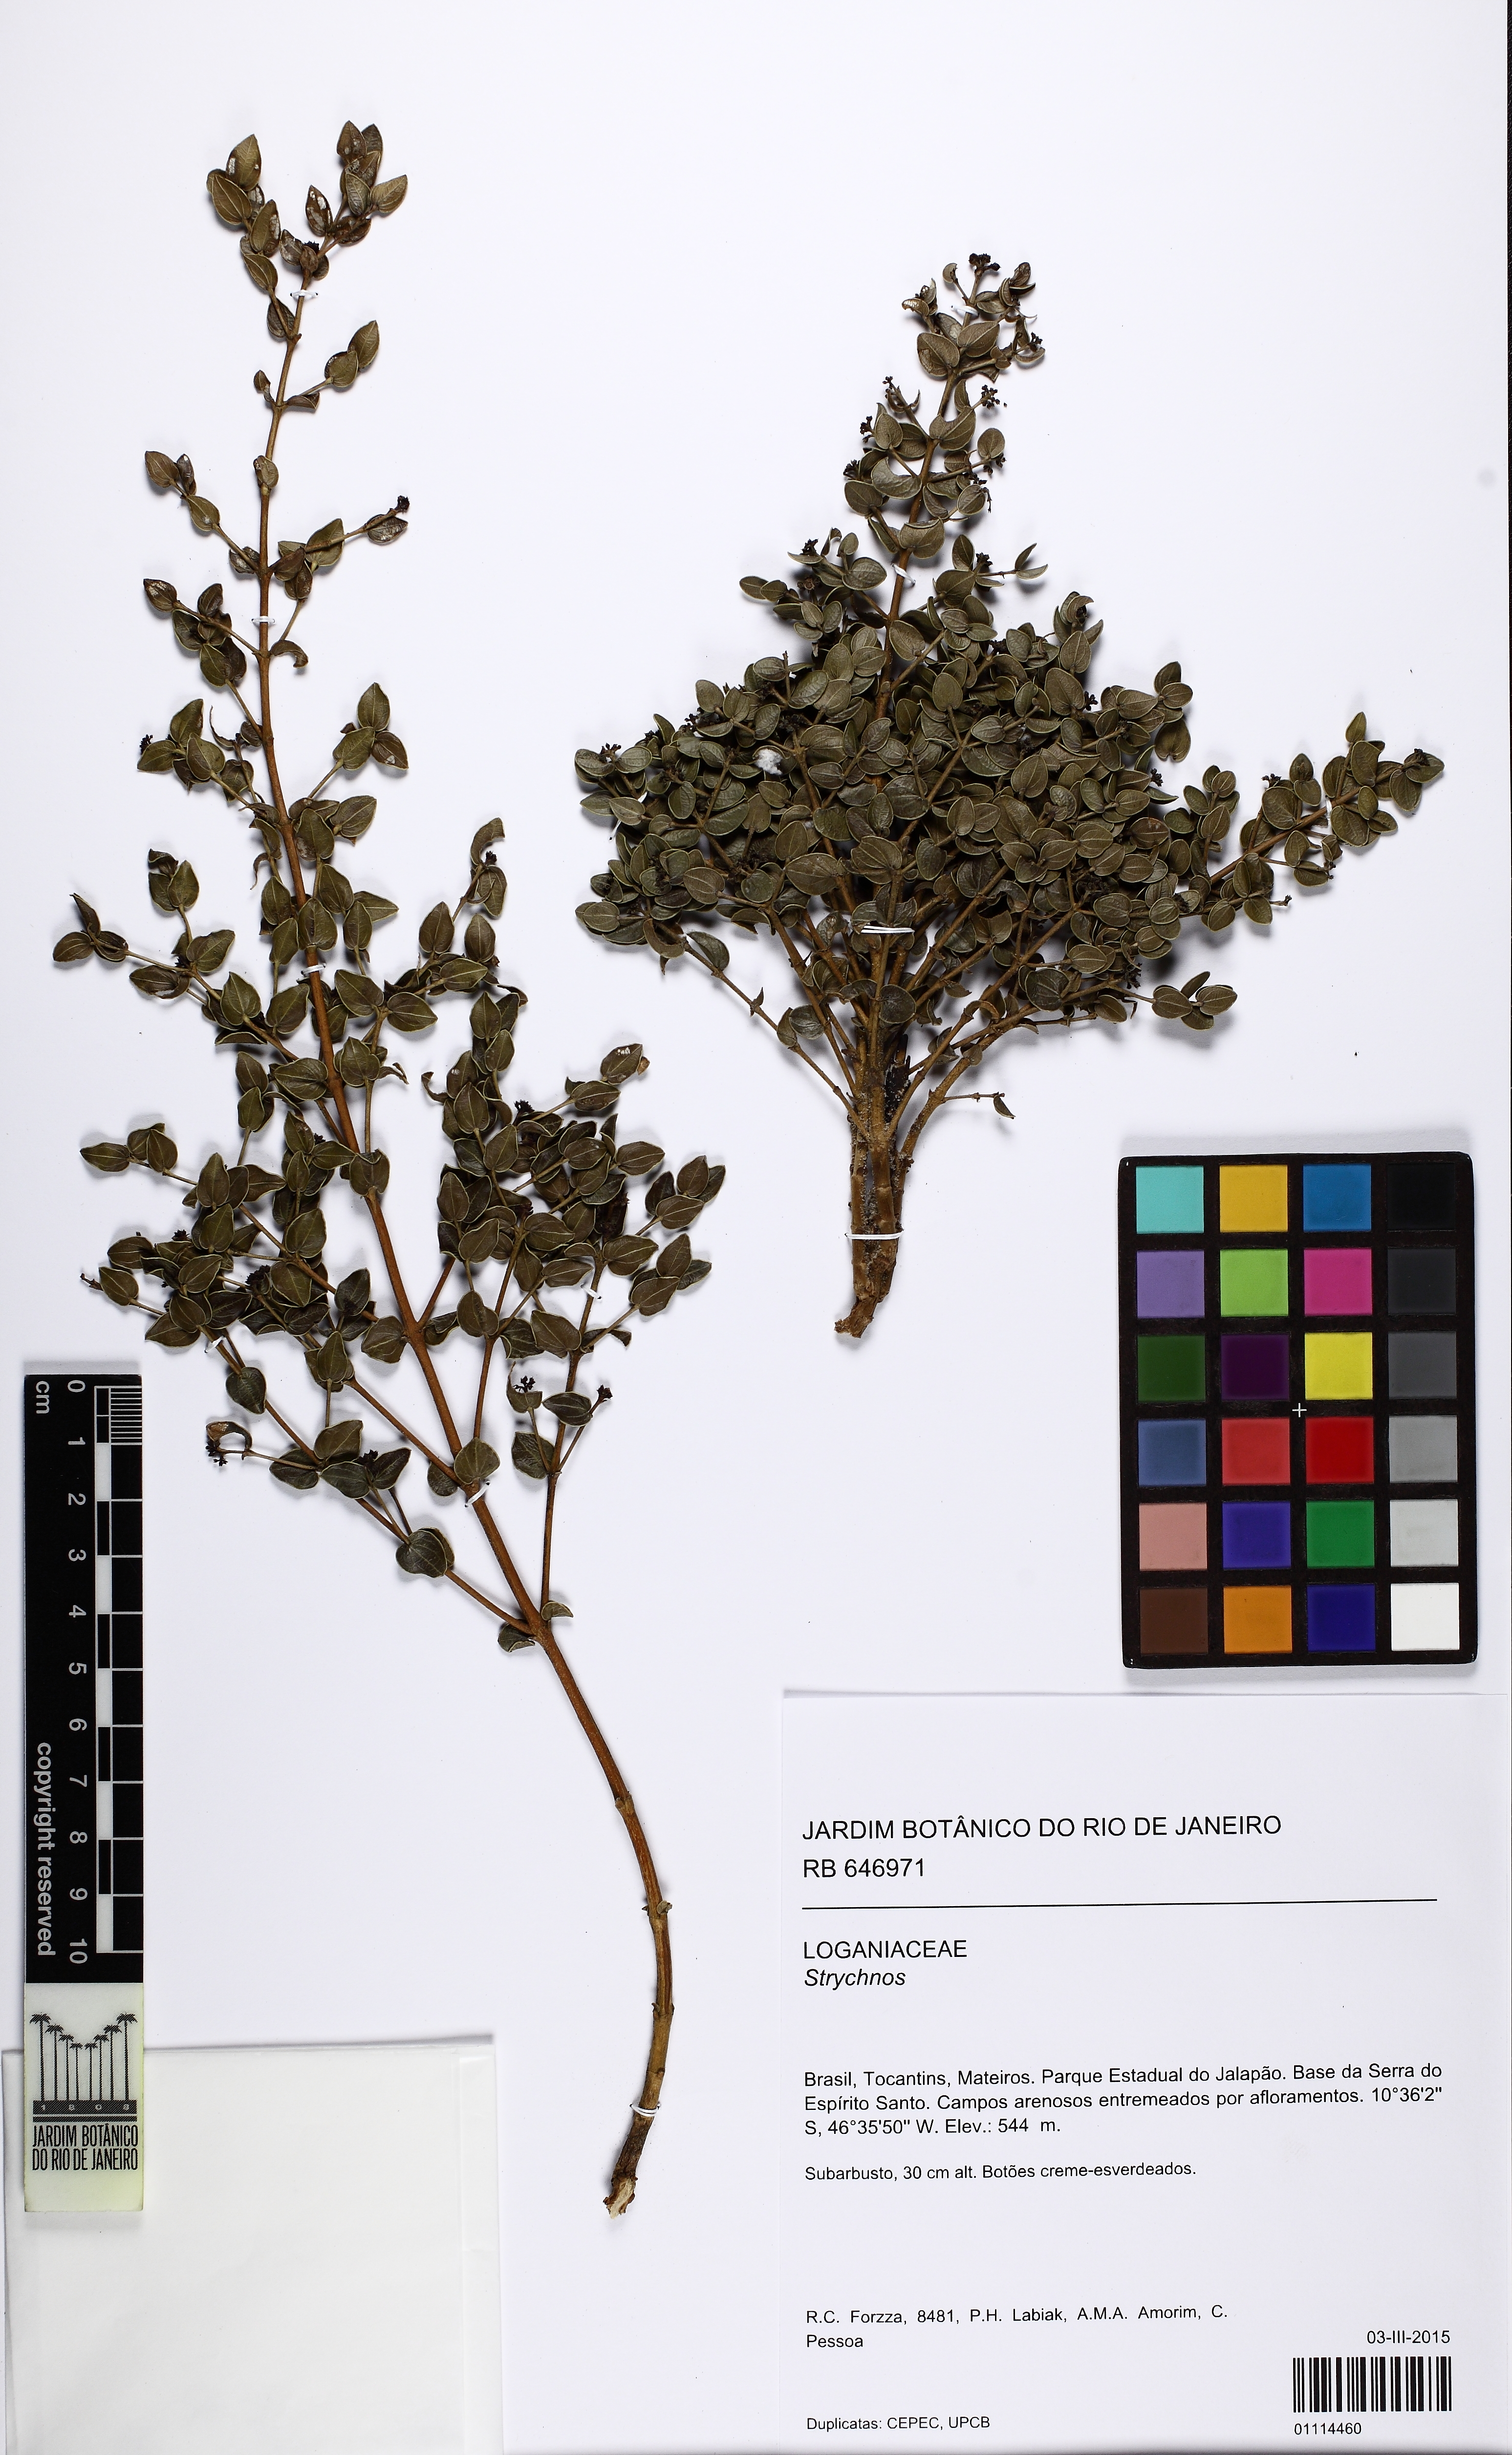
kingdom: Plantae
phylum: Tracheophyta
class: Magnoliopsida
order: Gentianales
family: Loganiaceae
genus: Strychnos
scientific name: Strychnos parvifolia
